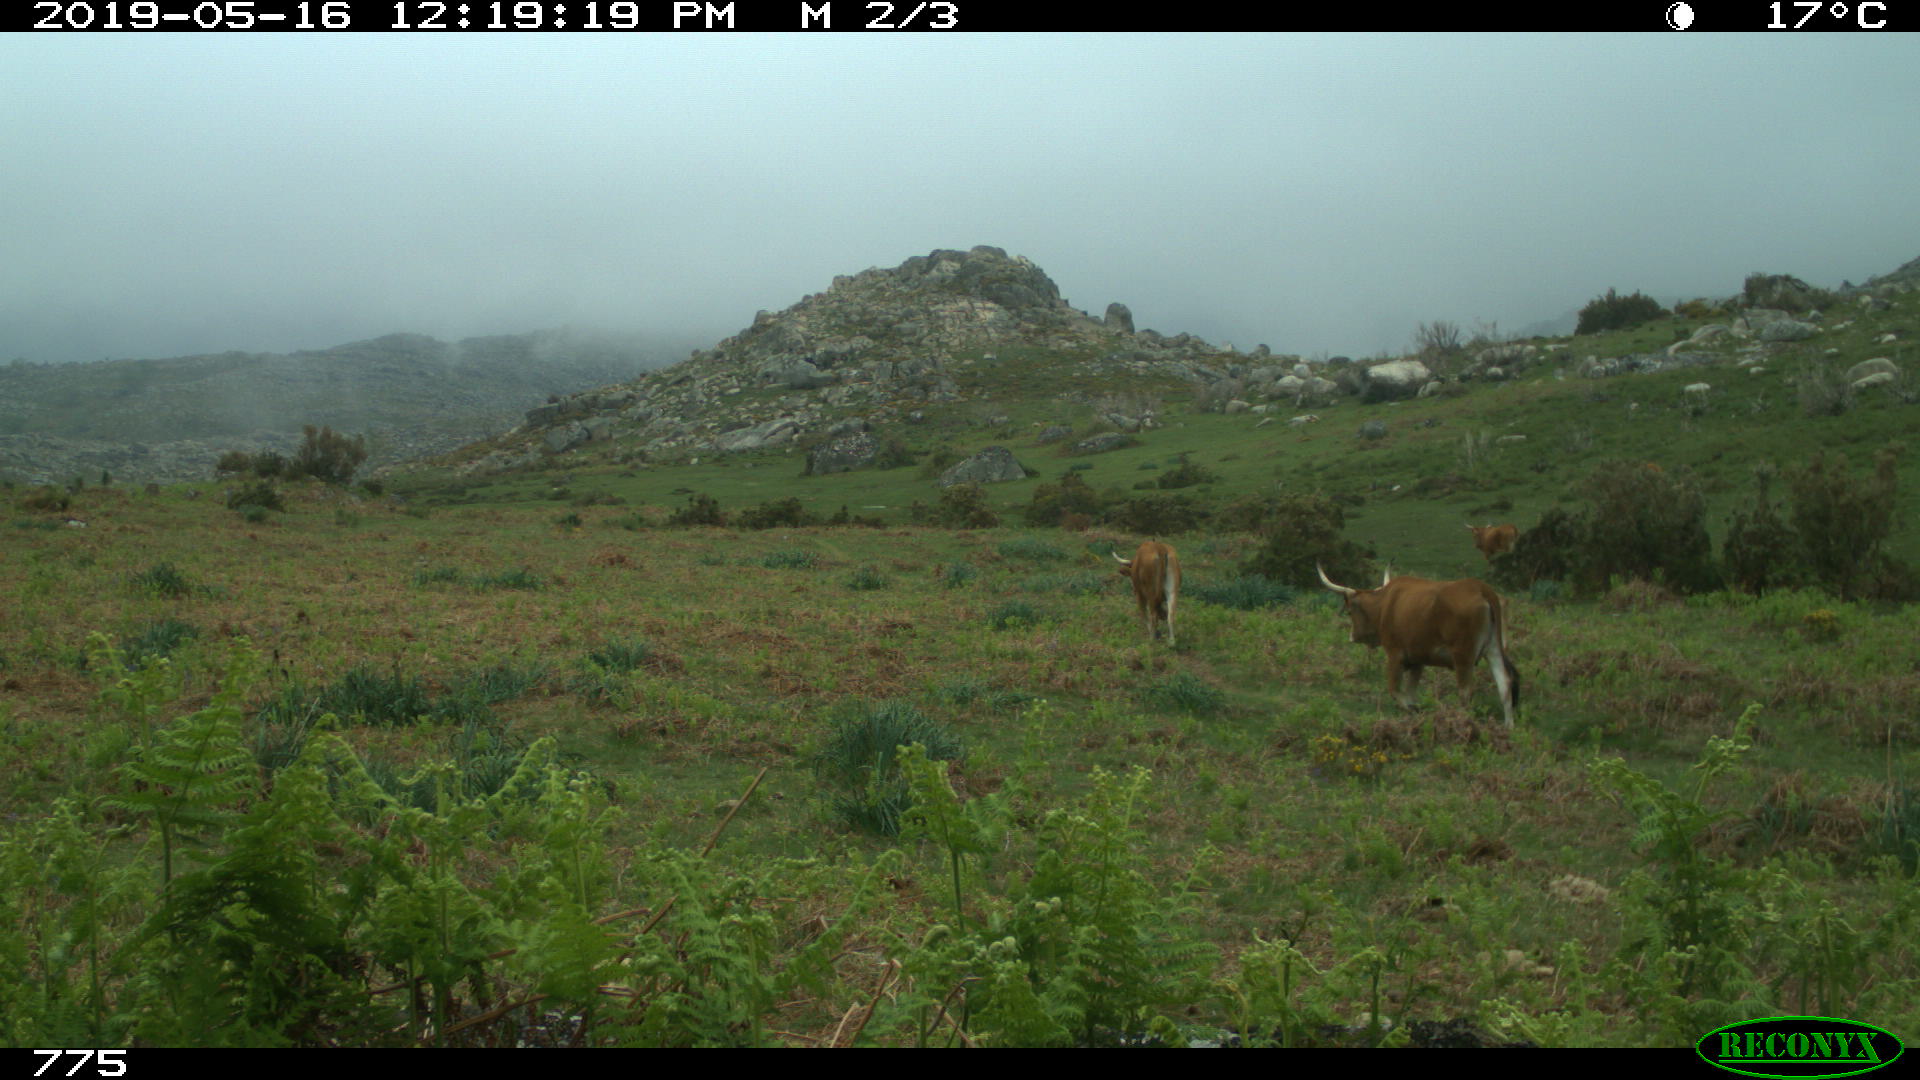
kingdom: Animalia
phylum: Chordata
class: Mammalia
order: Artiodactyla
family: Bovidae
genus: Bos
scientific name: Bos taurus
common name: Domesticated cattle
